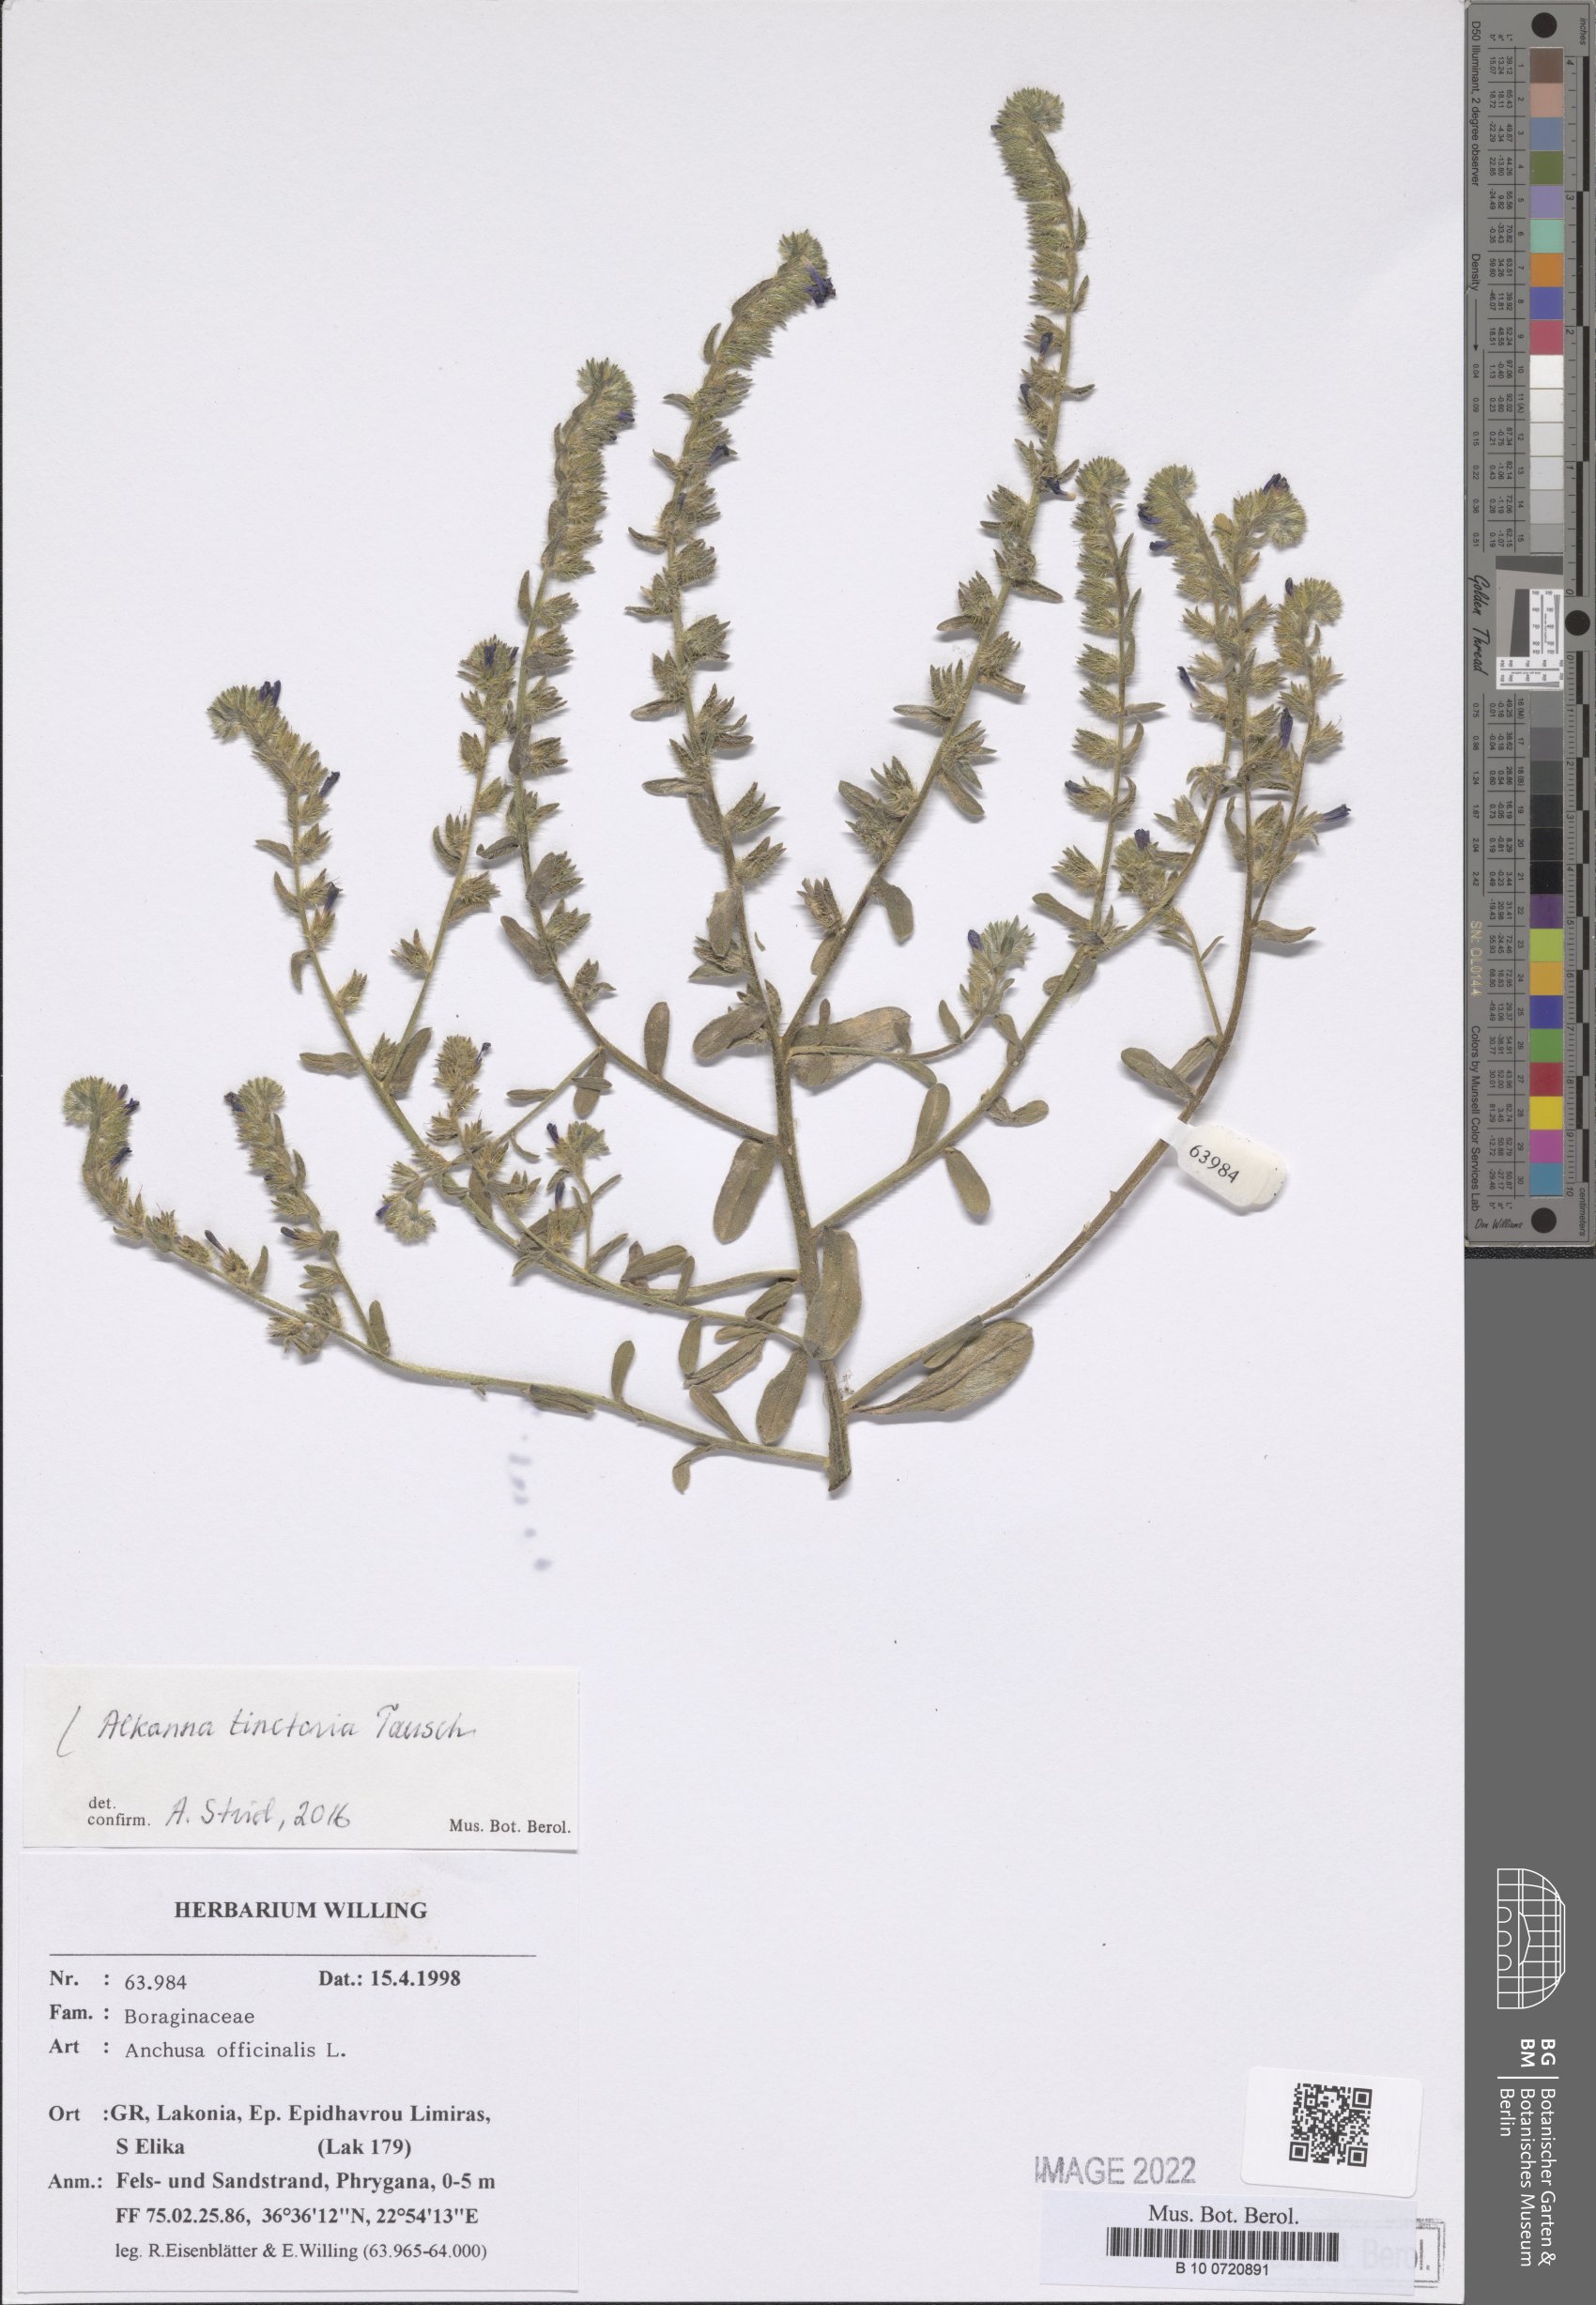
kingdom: Plantae
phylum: Tracheophyta
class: Magnoliopsida
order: Boraginales
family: Boraginaceae
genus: Alkanna
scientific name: Alkanna tinctoria
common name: Dyer's-alkanet
